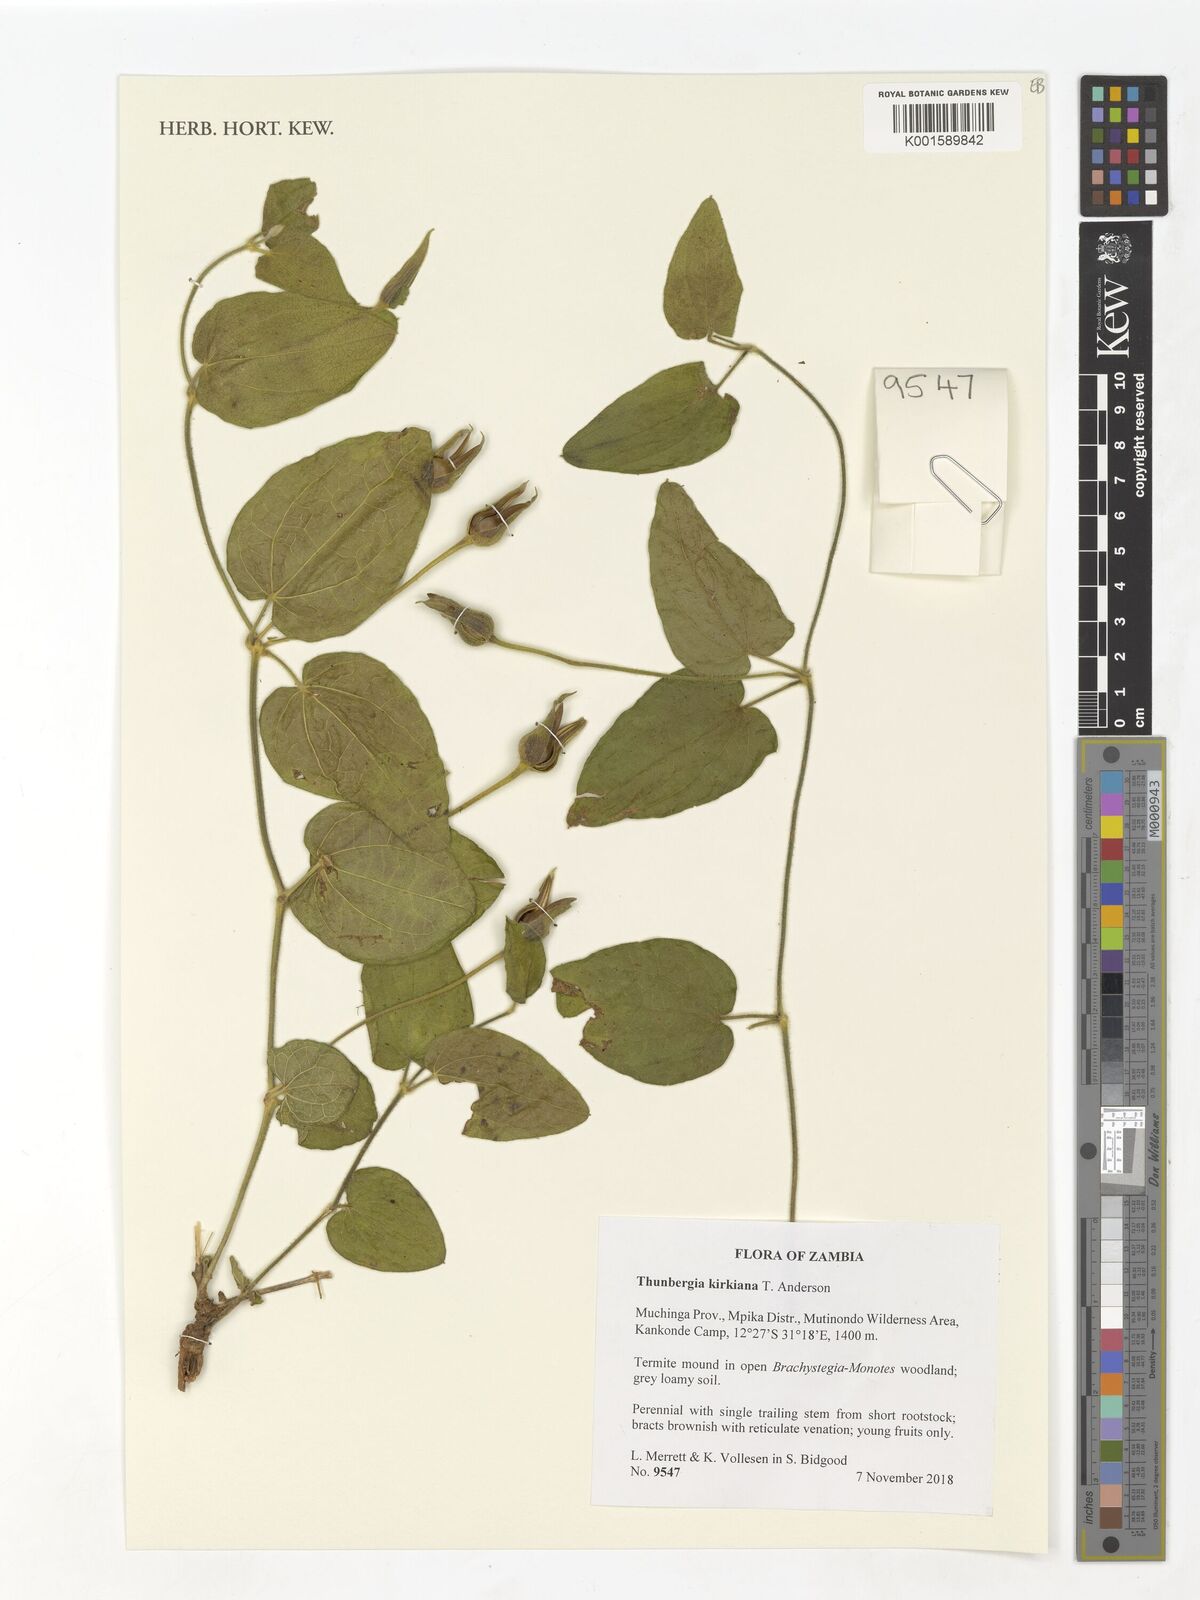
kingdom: Plantae
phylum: Tracheophyta
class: Magnoliopsida
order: Lamiales
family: Acanthaceae
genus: Thunbergia
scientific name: Thunbergia kirkiana
